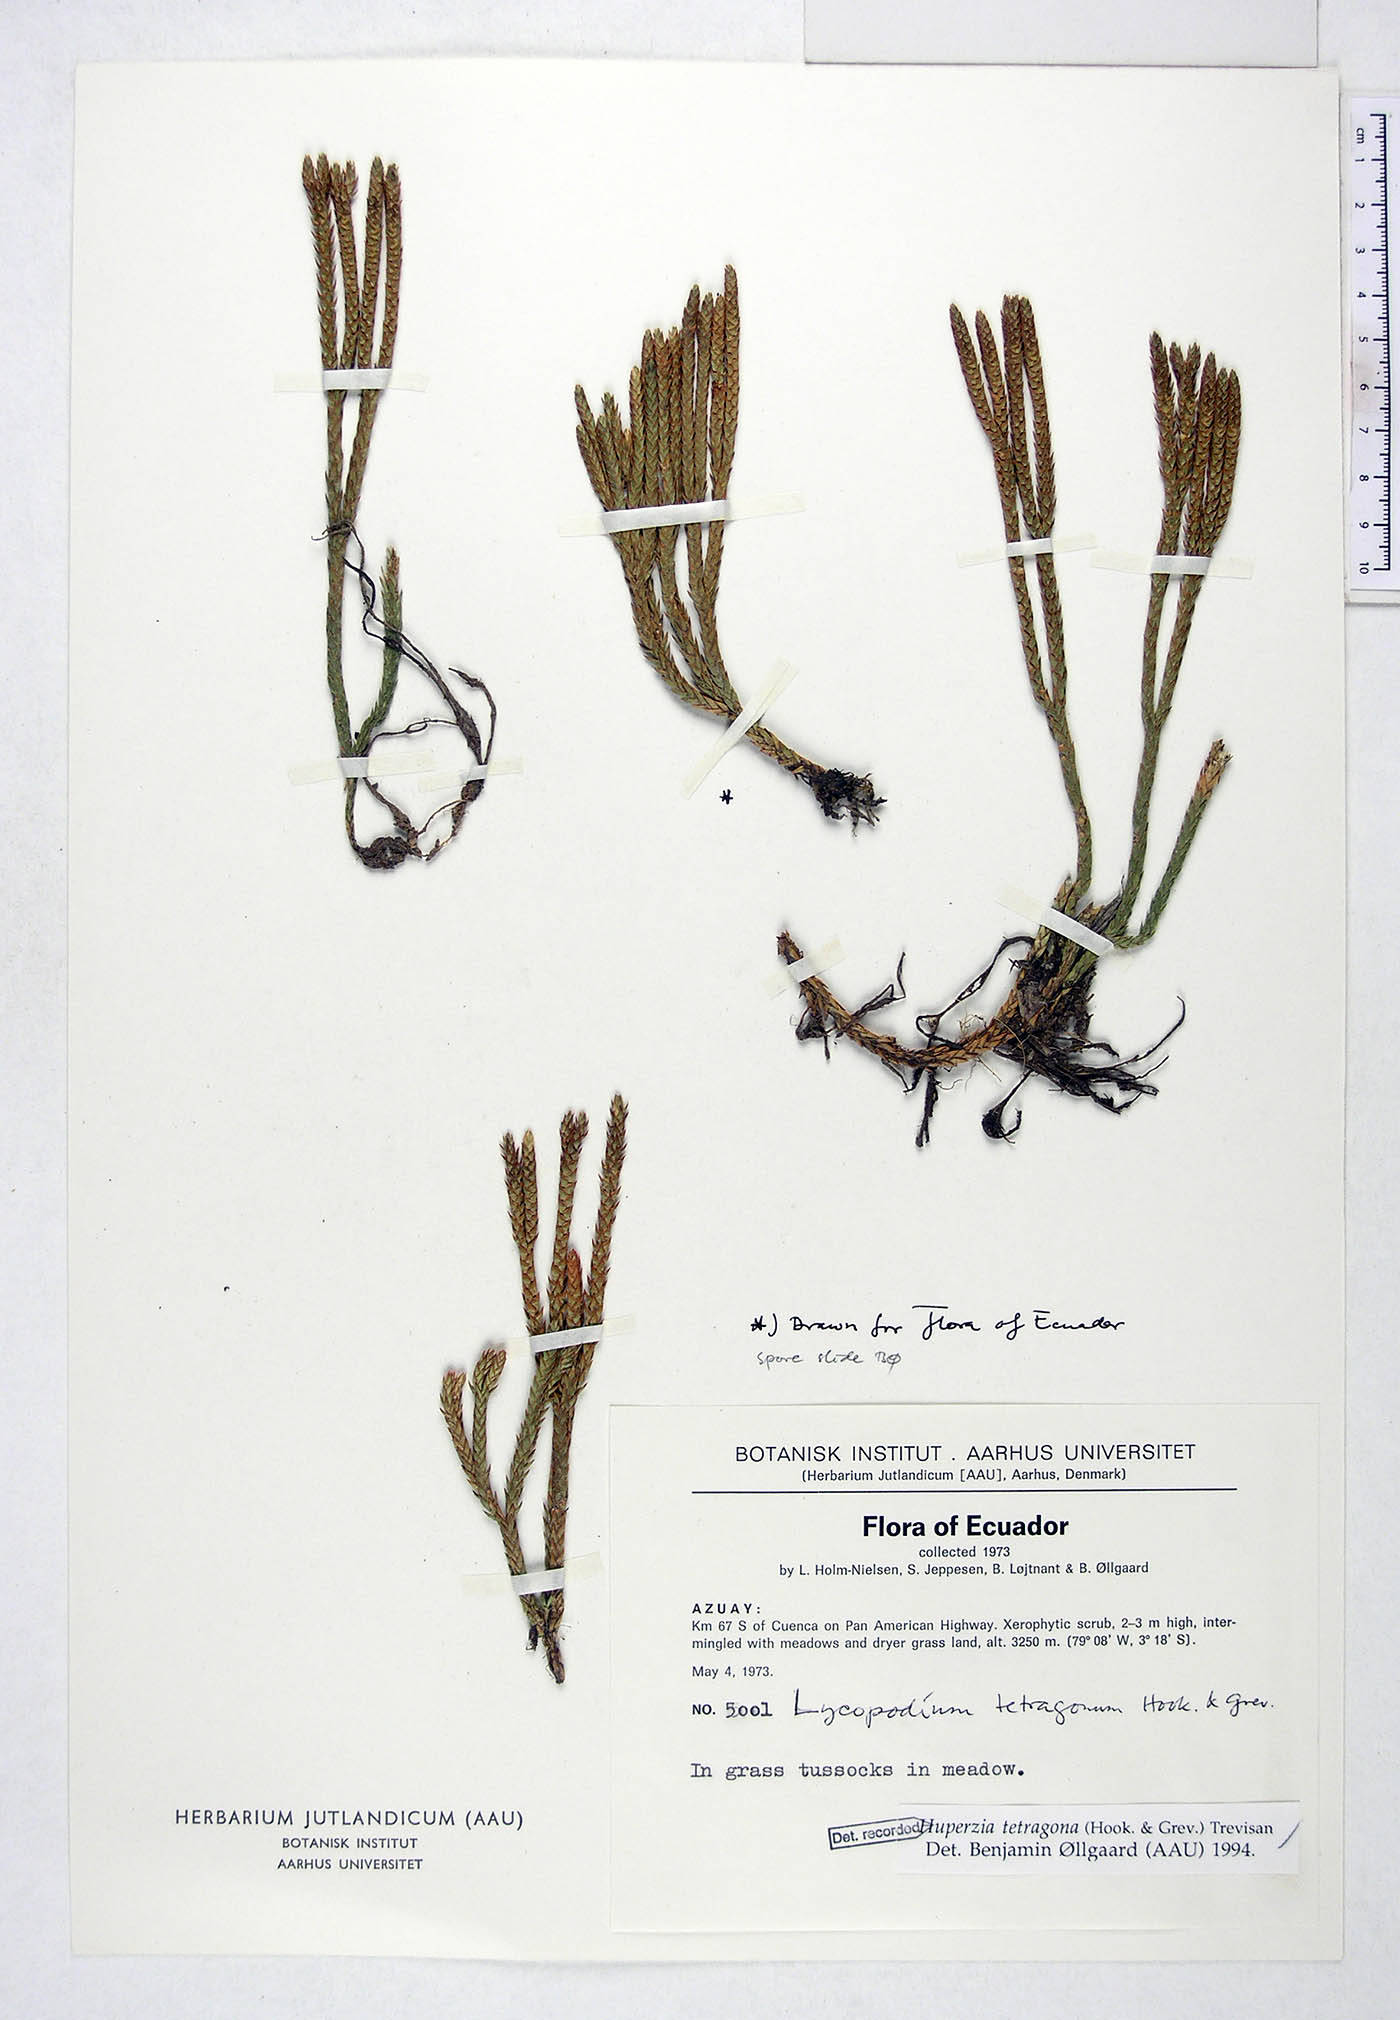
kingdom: Plantae
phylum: Tracheophyta
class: Lycopodiopsida
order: Lycopodiales
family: Lycopodiaceae
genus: Phlegmariurus
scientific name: Phlegmariurus tetragonus
